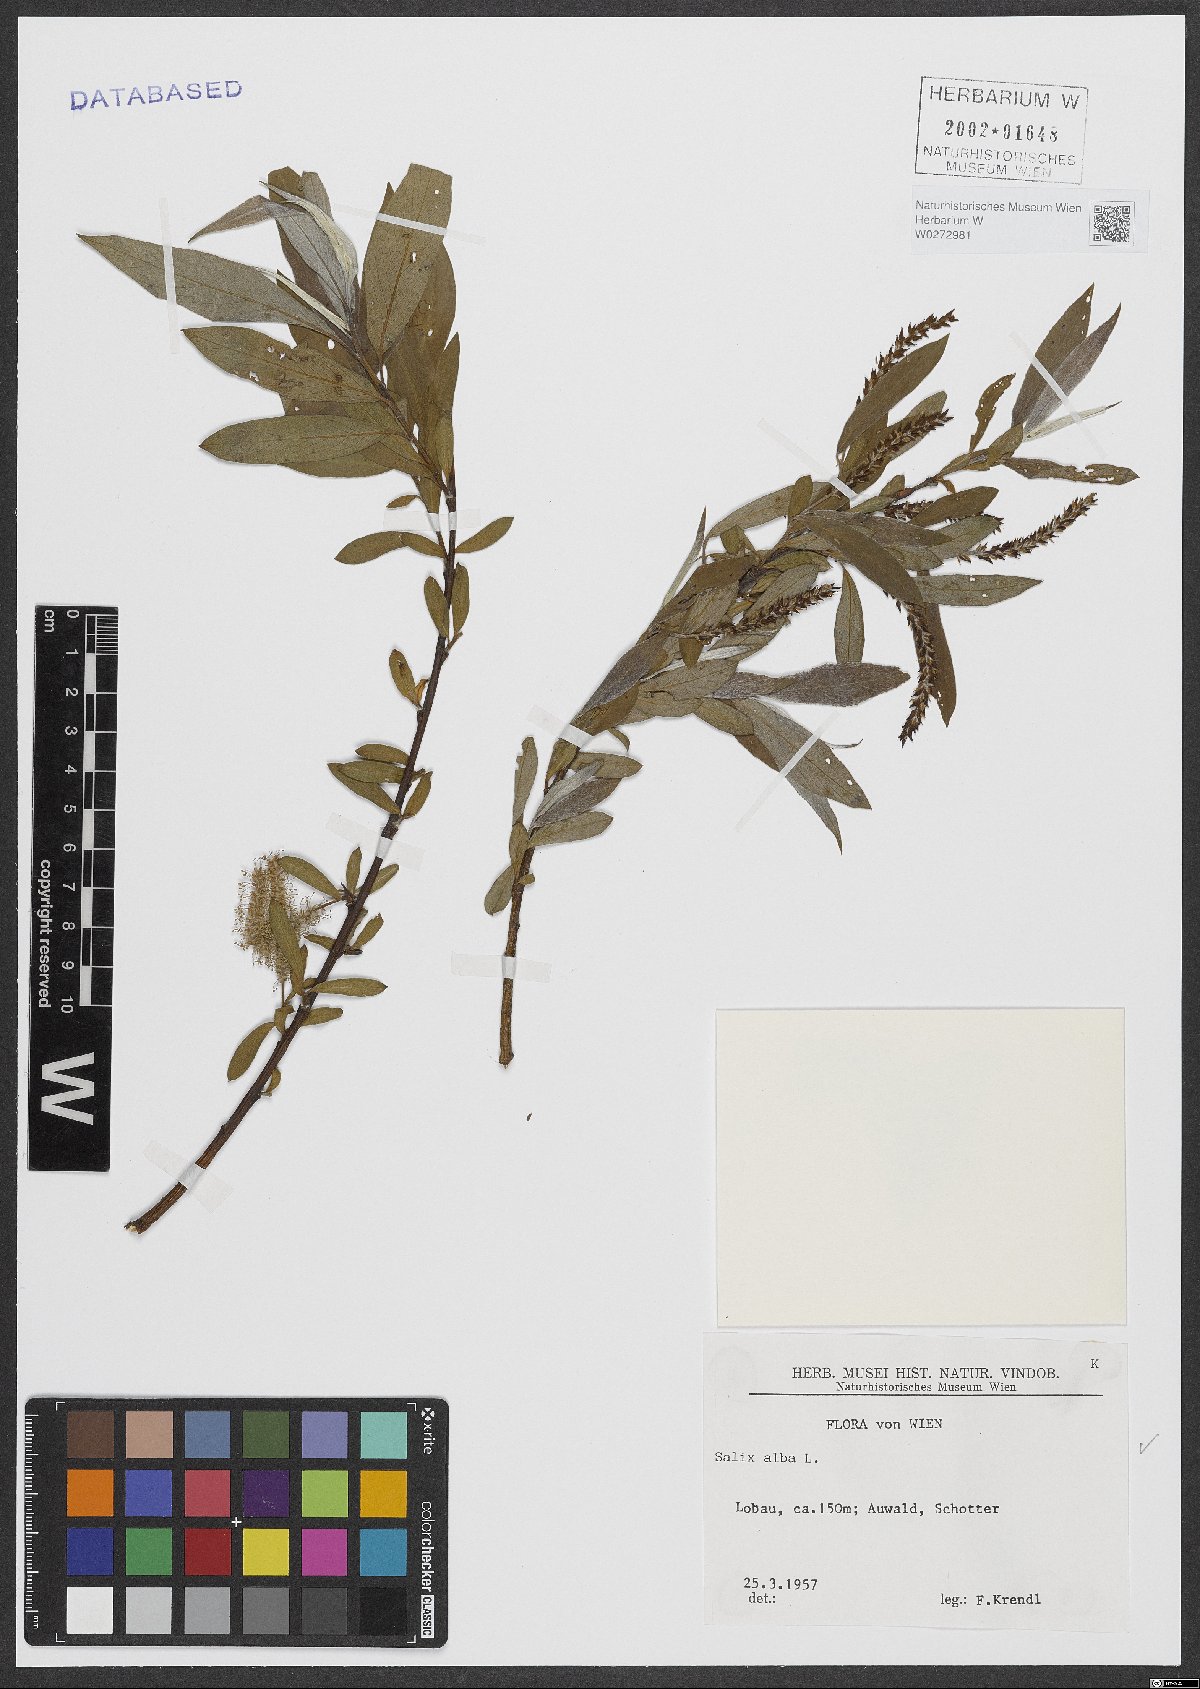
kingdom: Plantae
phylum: Tracheophyta
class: Magnoliopsida
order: Malpighiales
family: Salicaceae
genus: Salix
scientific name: Salix alba
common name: White willow
